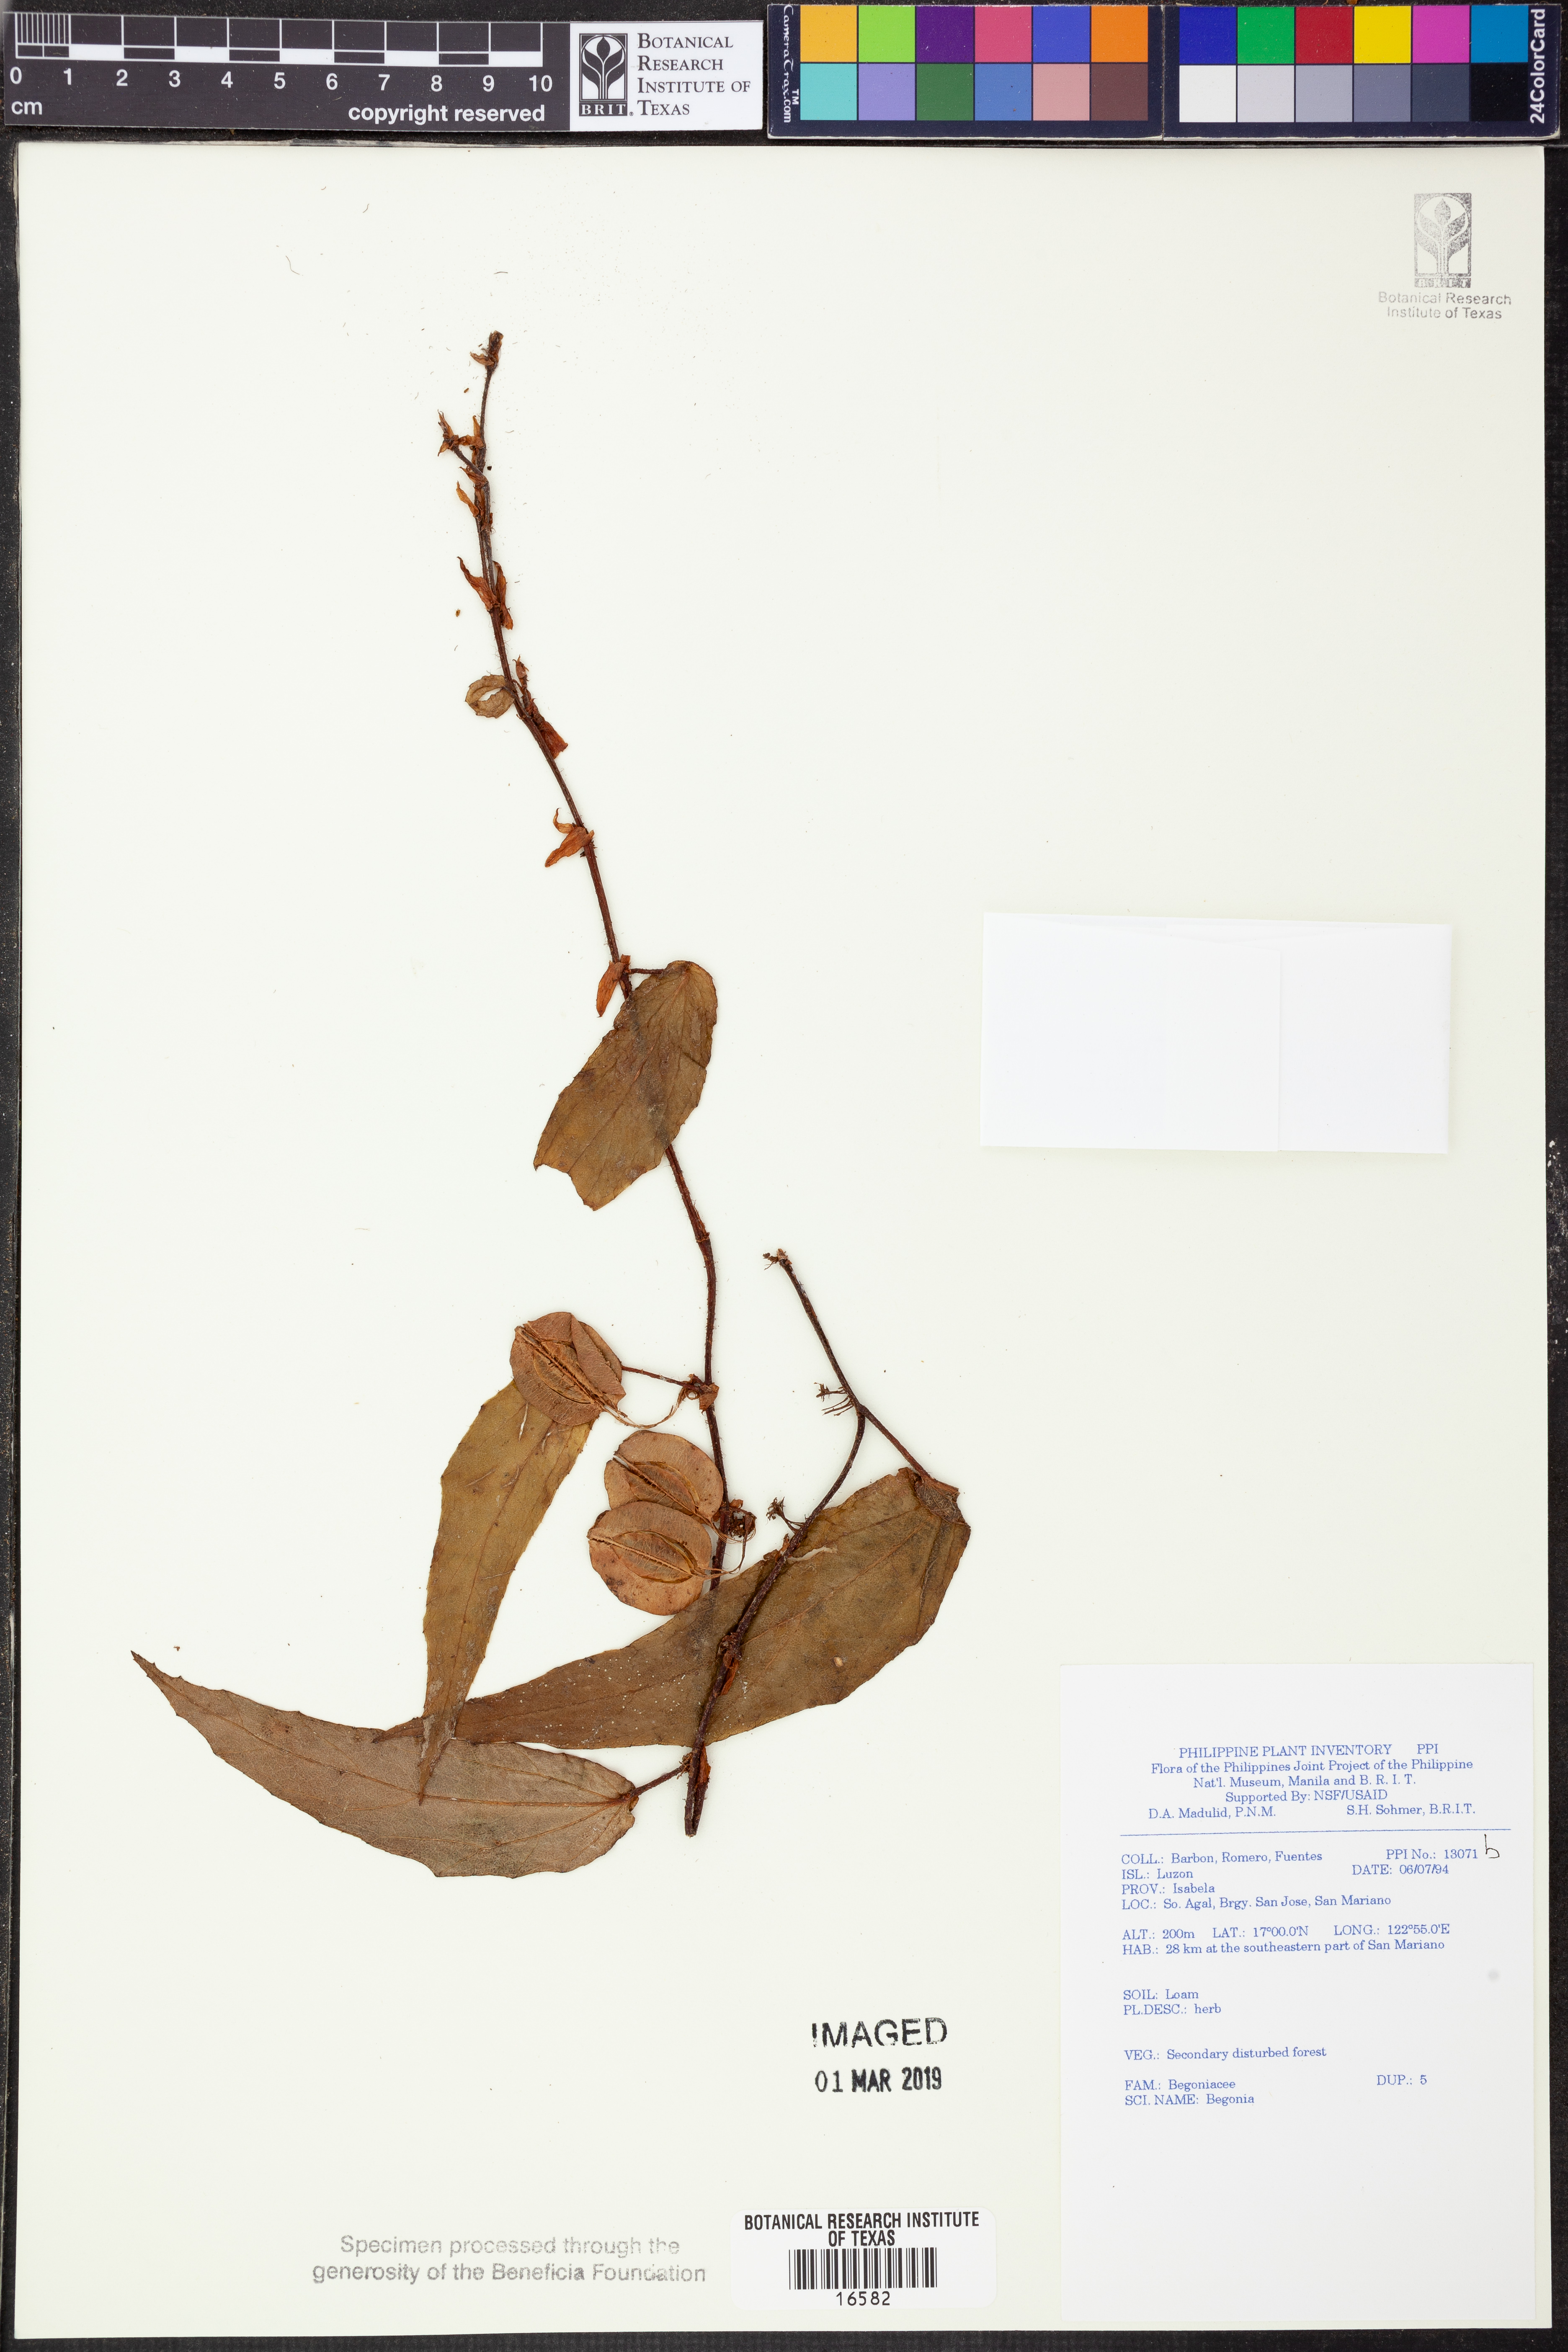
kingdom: Plantae
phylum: Tracheophyta
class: Magnoliopsida
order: Cucurbitales
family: Begoniaceae
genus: Begonia
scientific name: Begonia
